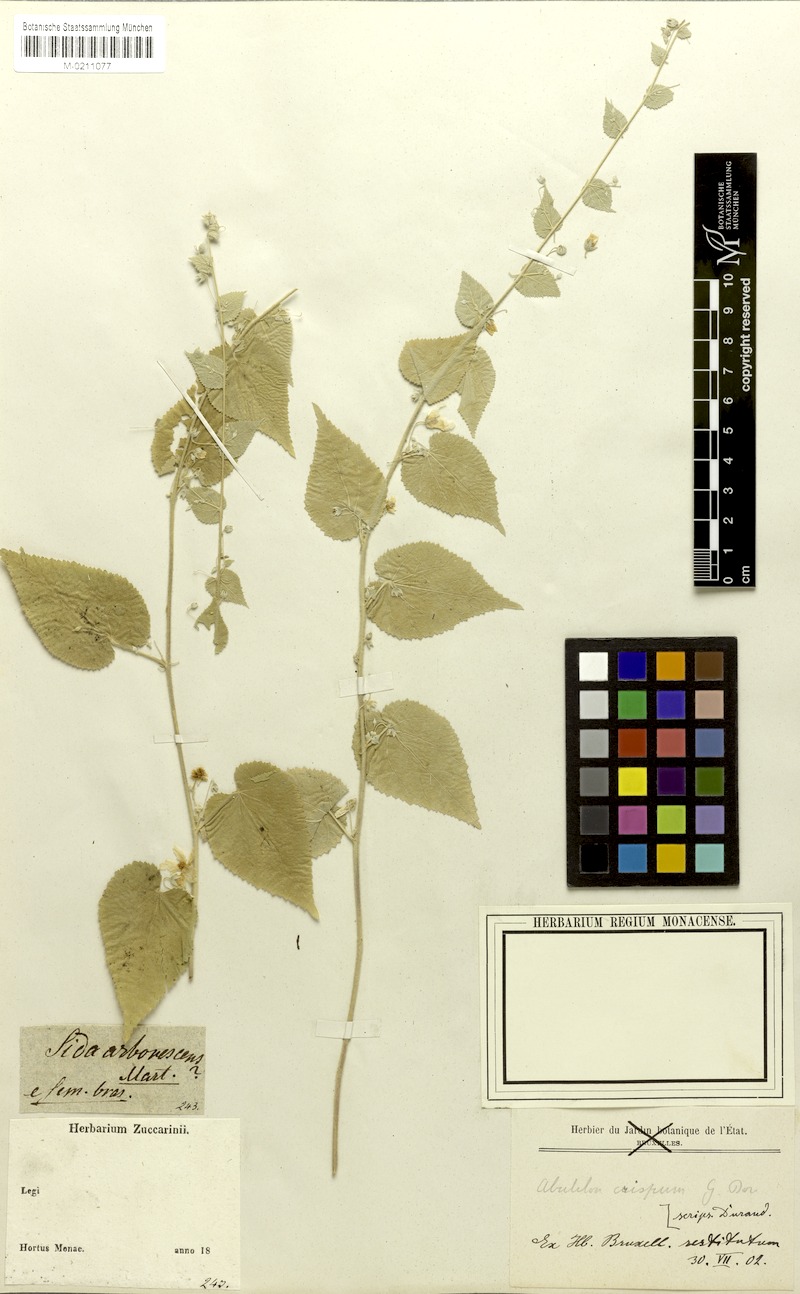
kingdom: Plantae
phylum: Tracheophyta
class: Magnoliopsida
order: Malvales
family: Malvaceae
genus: Herissantia
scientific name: Herissantia crispa
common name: Bladdermallow
